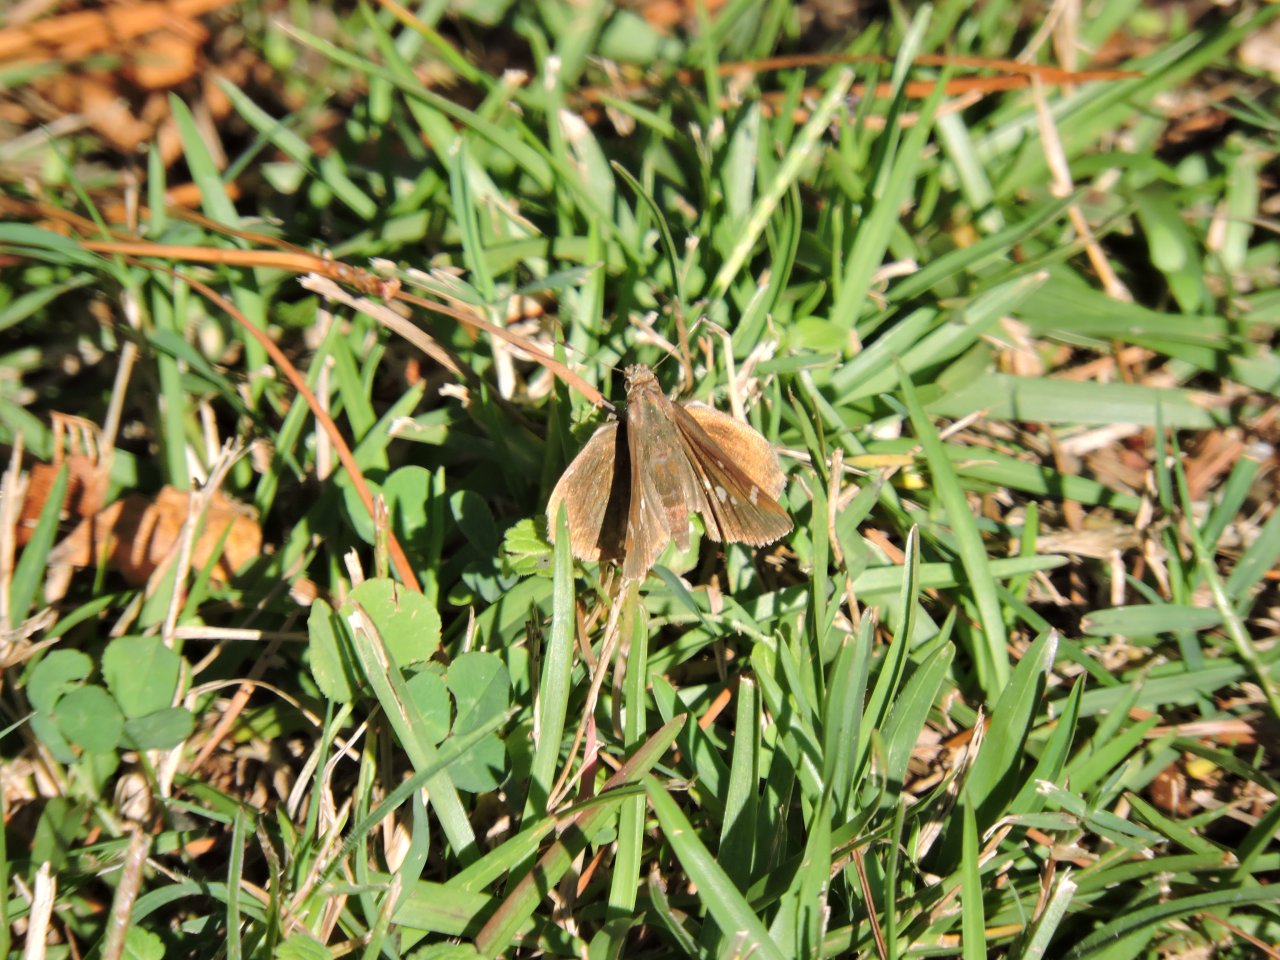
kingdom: Animalia
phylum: Arthropoda
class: Insecta
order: Lepidoptera
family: Hesperiidae
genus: Lerema
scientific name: Lerema accius
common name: Clouded Skipper
